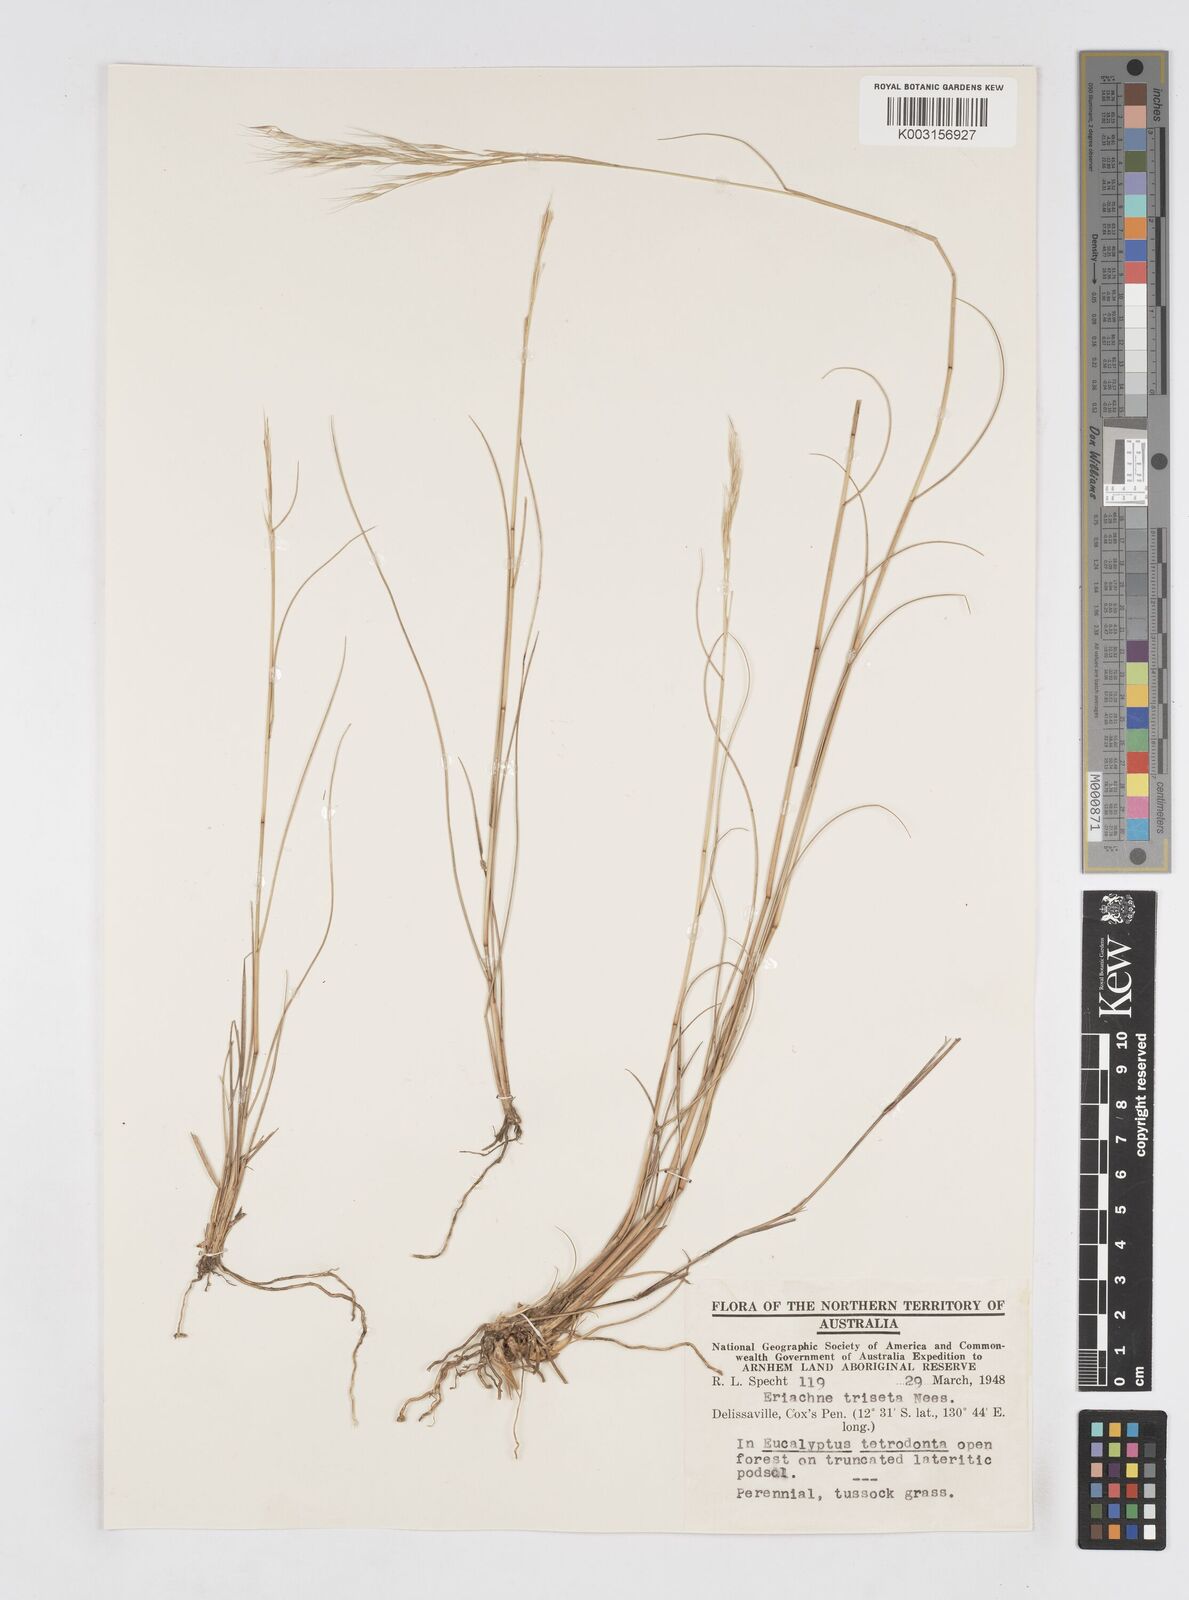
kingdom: Plantae
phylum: Tracheophyta
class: Liliopsida
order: Poales
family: Poaceae
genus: Eriachne
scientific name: Eriachne triseta
